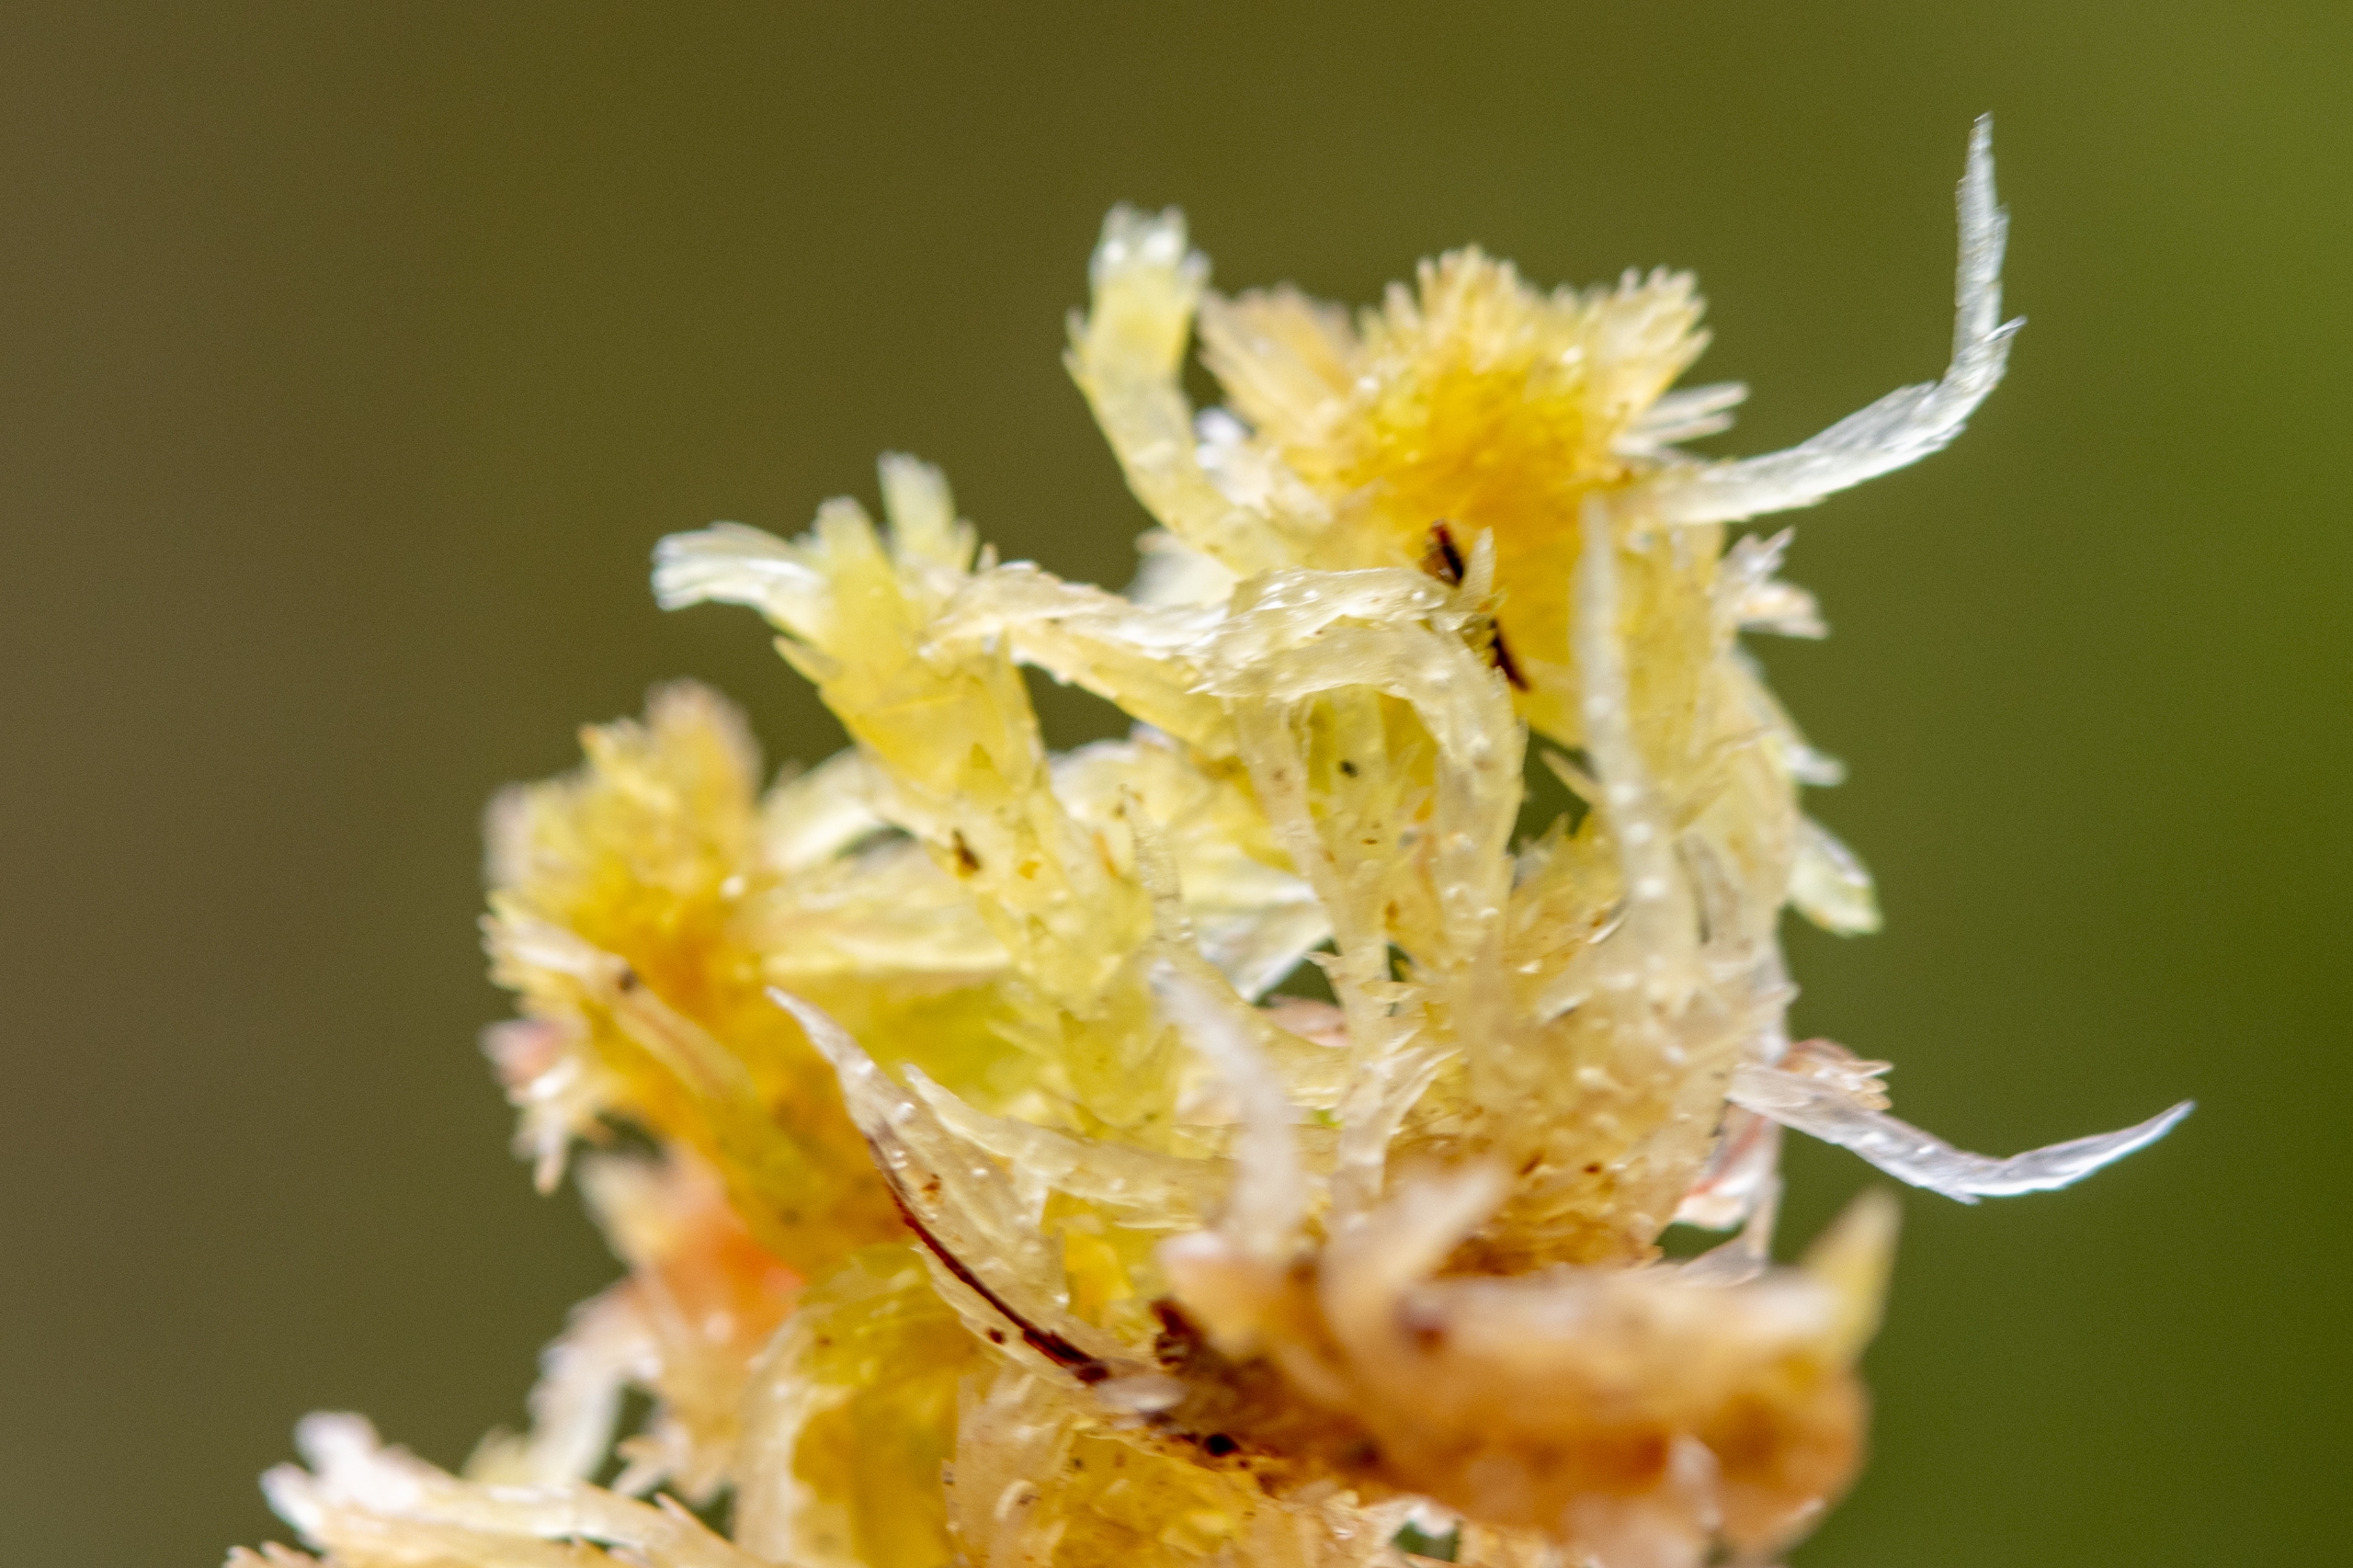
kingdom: Plantae
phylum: Bryophyta
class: Sphagnopsida
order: Sphagnales
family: Sphagnaceae
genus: Sphagnum
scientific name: Sphagnum
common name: Tørvemosslægten
